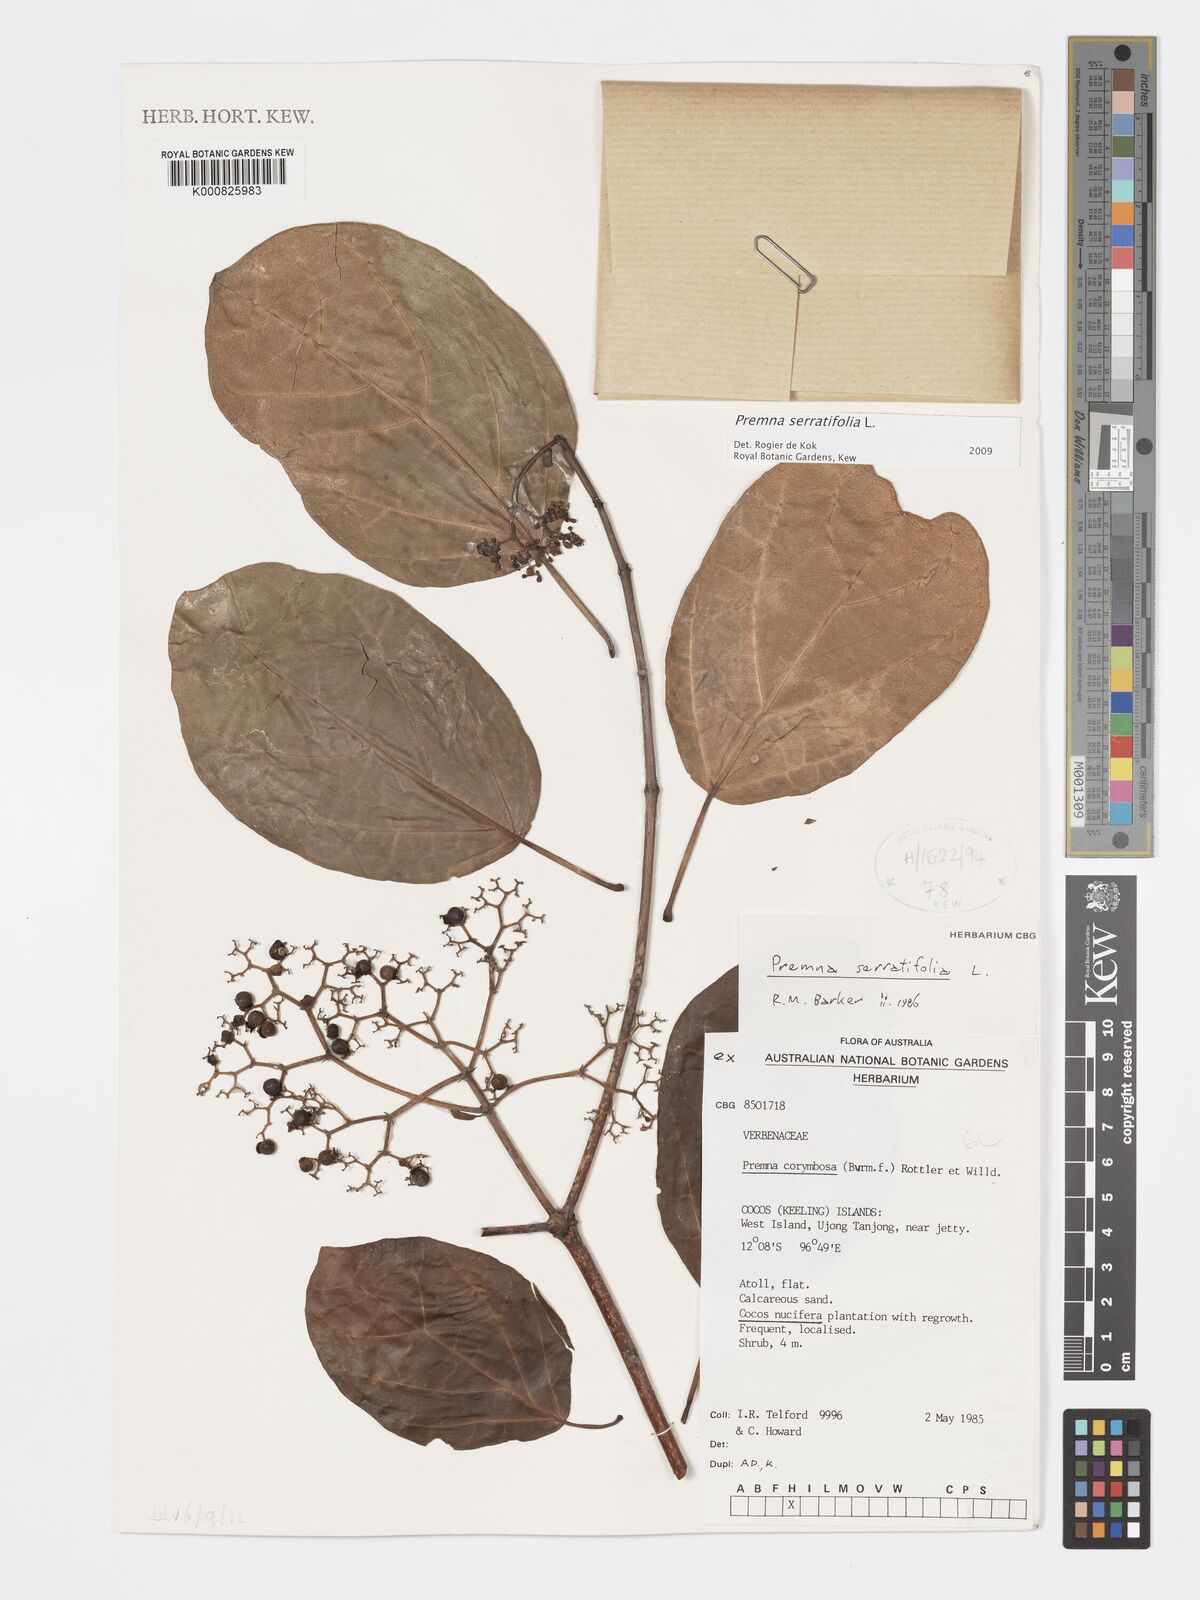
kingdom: Plantae
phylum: Tracheophyta
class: Magnoliopsida
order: Lamiales
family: Lamiaceae
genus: Premna
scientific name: Premna serratifolia
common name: Bastard guelder
